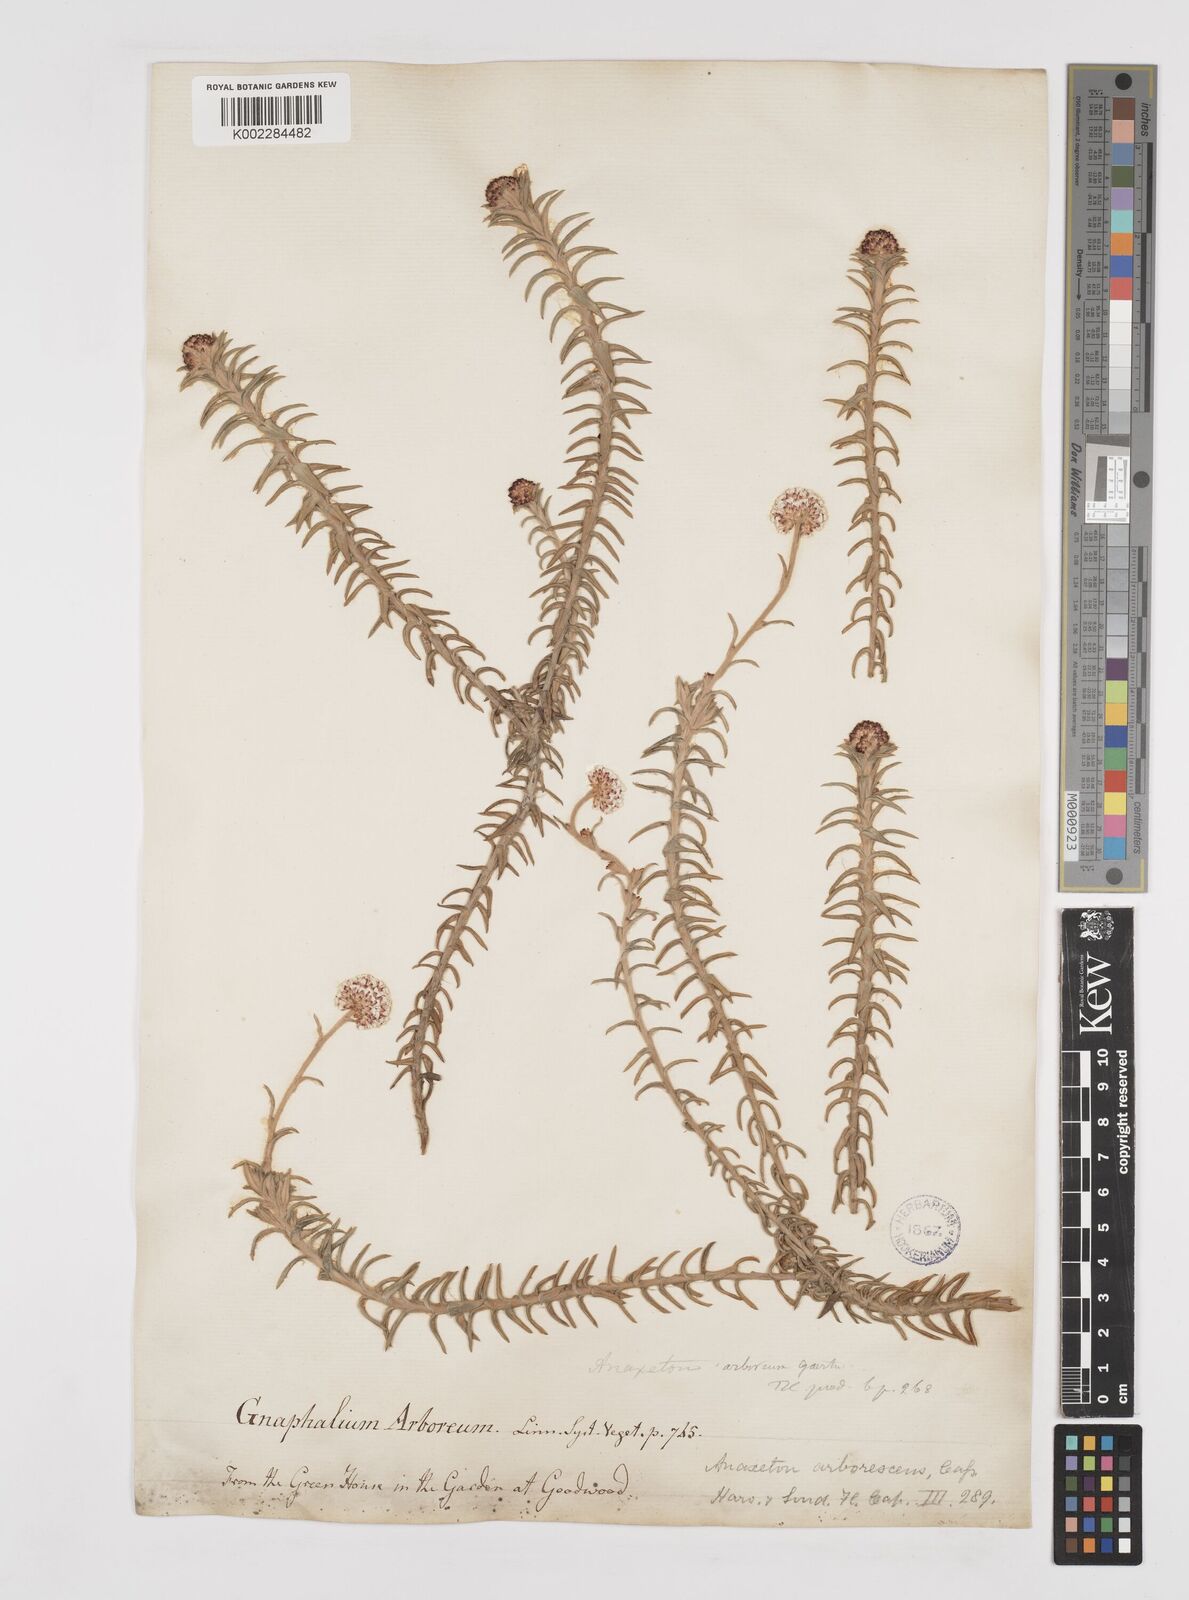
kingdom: Plantae
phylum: Tracheophyta
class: Magnoliopsida
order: Asterales
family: Asteraceae
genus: Anaxeton
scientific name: Anaxeton arborescens
